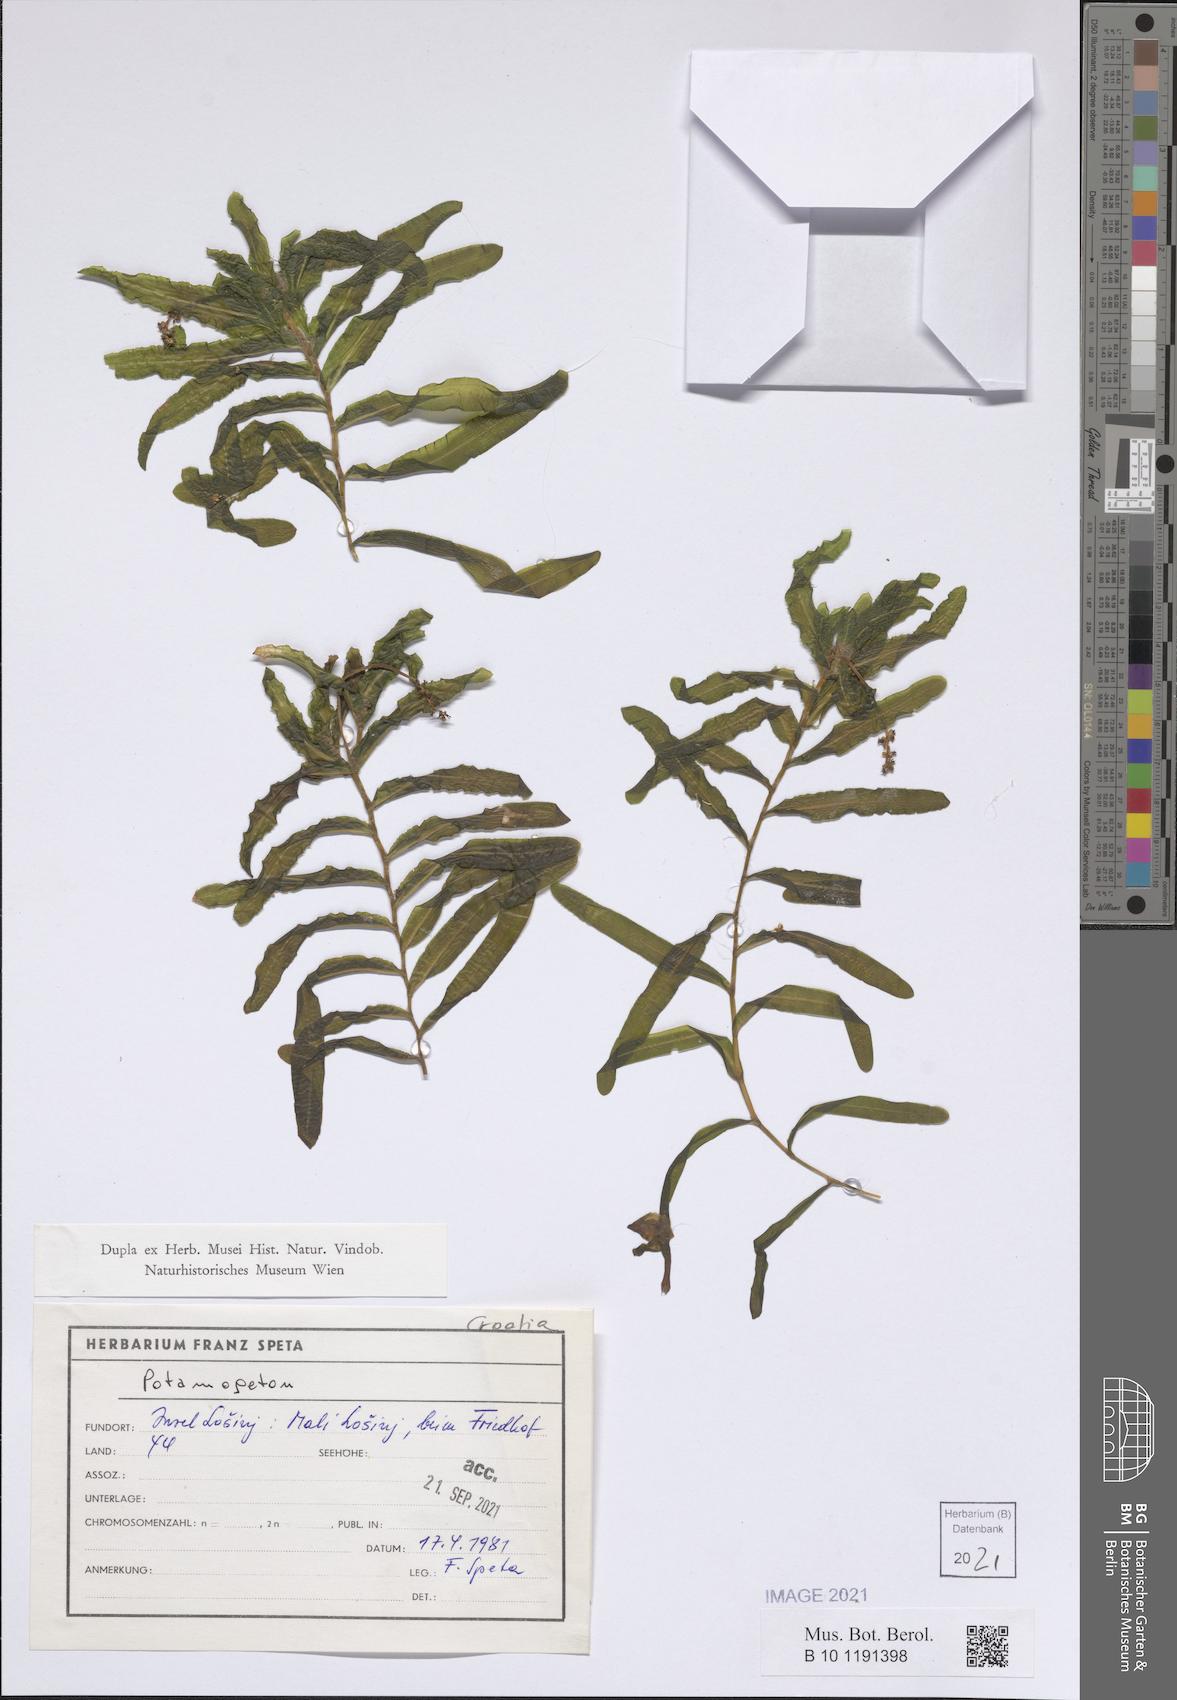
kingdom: Plantae
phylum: Tracheophyta
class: Liliopsida
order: Alismatales
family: Potamogetonaceae
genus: Potamogeton
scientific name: Potamogeton
